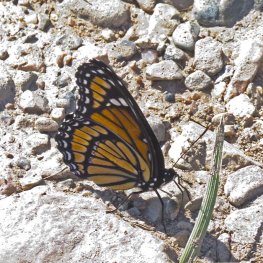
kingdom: Animalia
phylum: Arthropoda
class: Insecta
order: Lepidoptera
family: Nymphalidae
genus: Limenitis
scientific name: Limenitis archippus
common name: Viceroy
